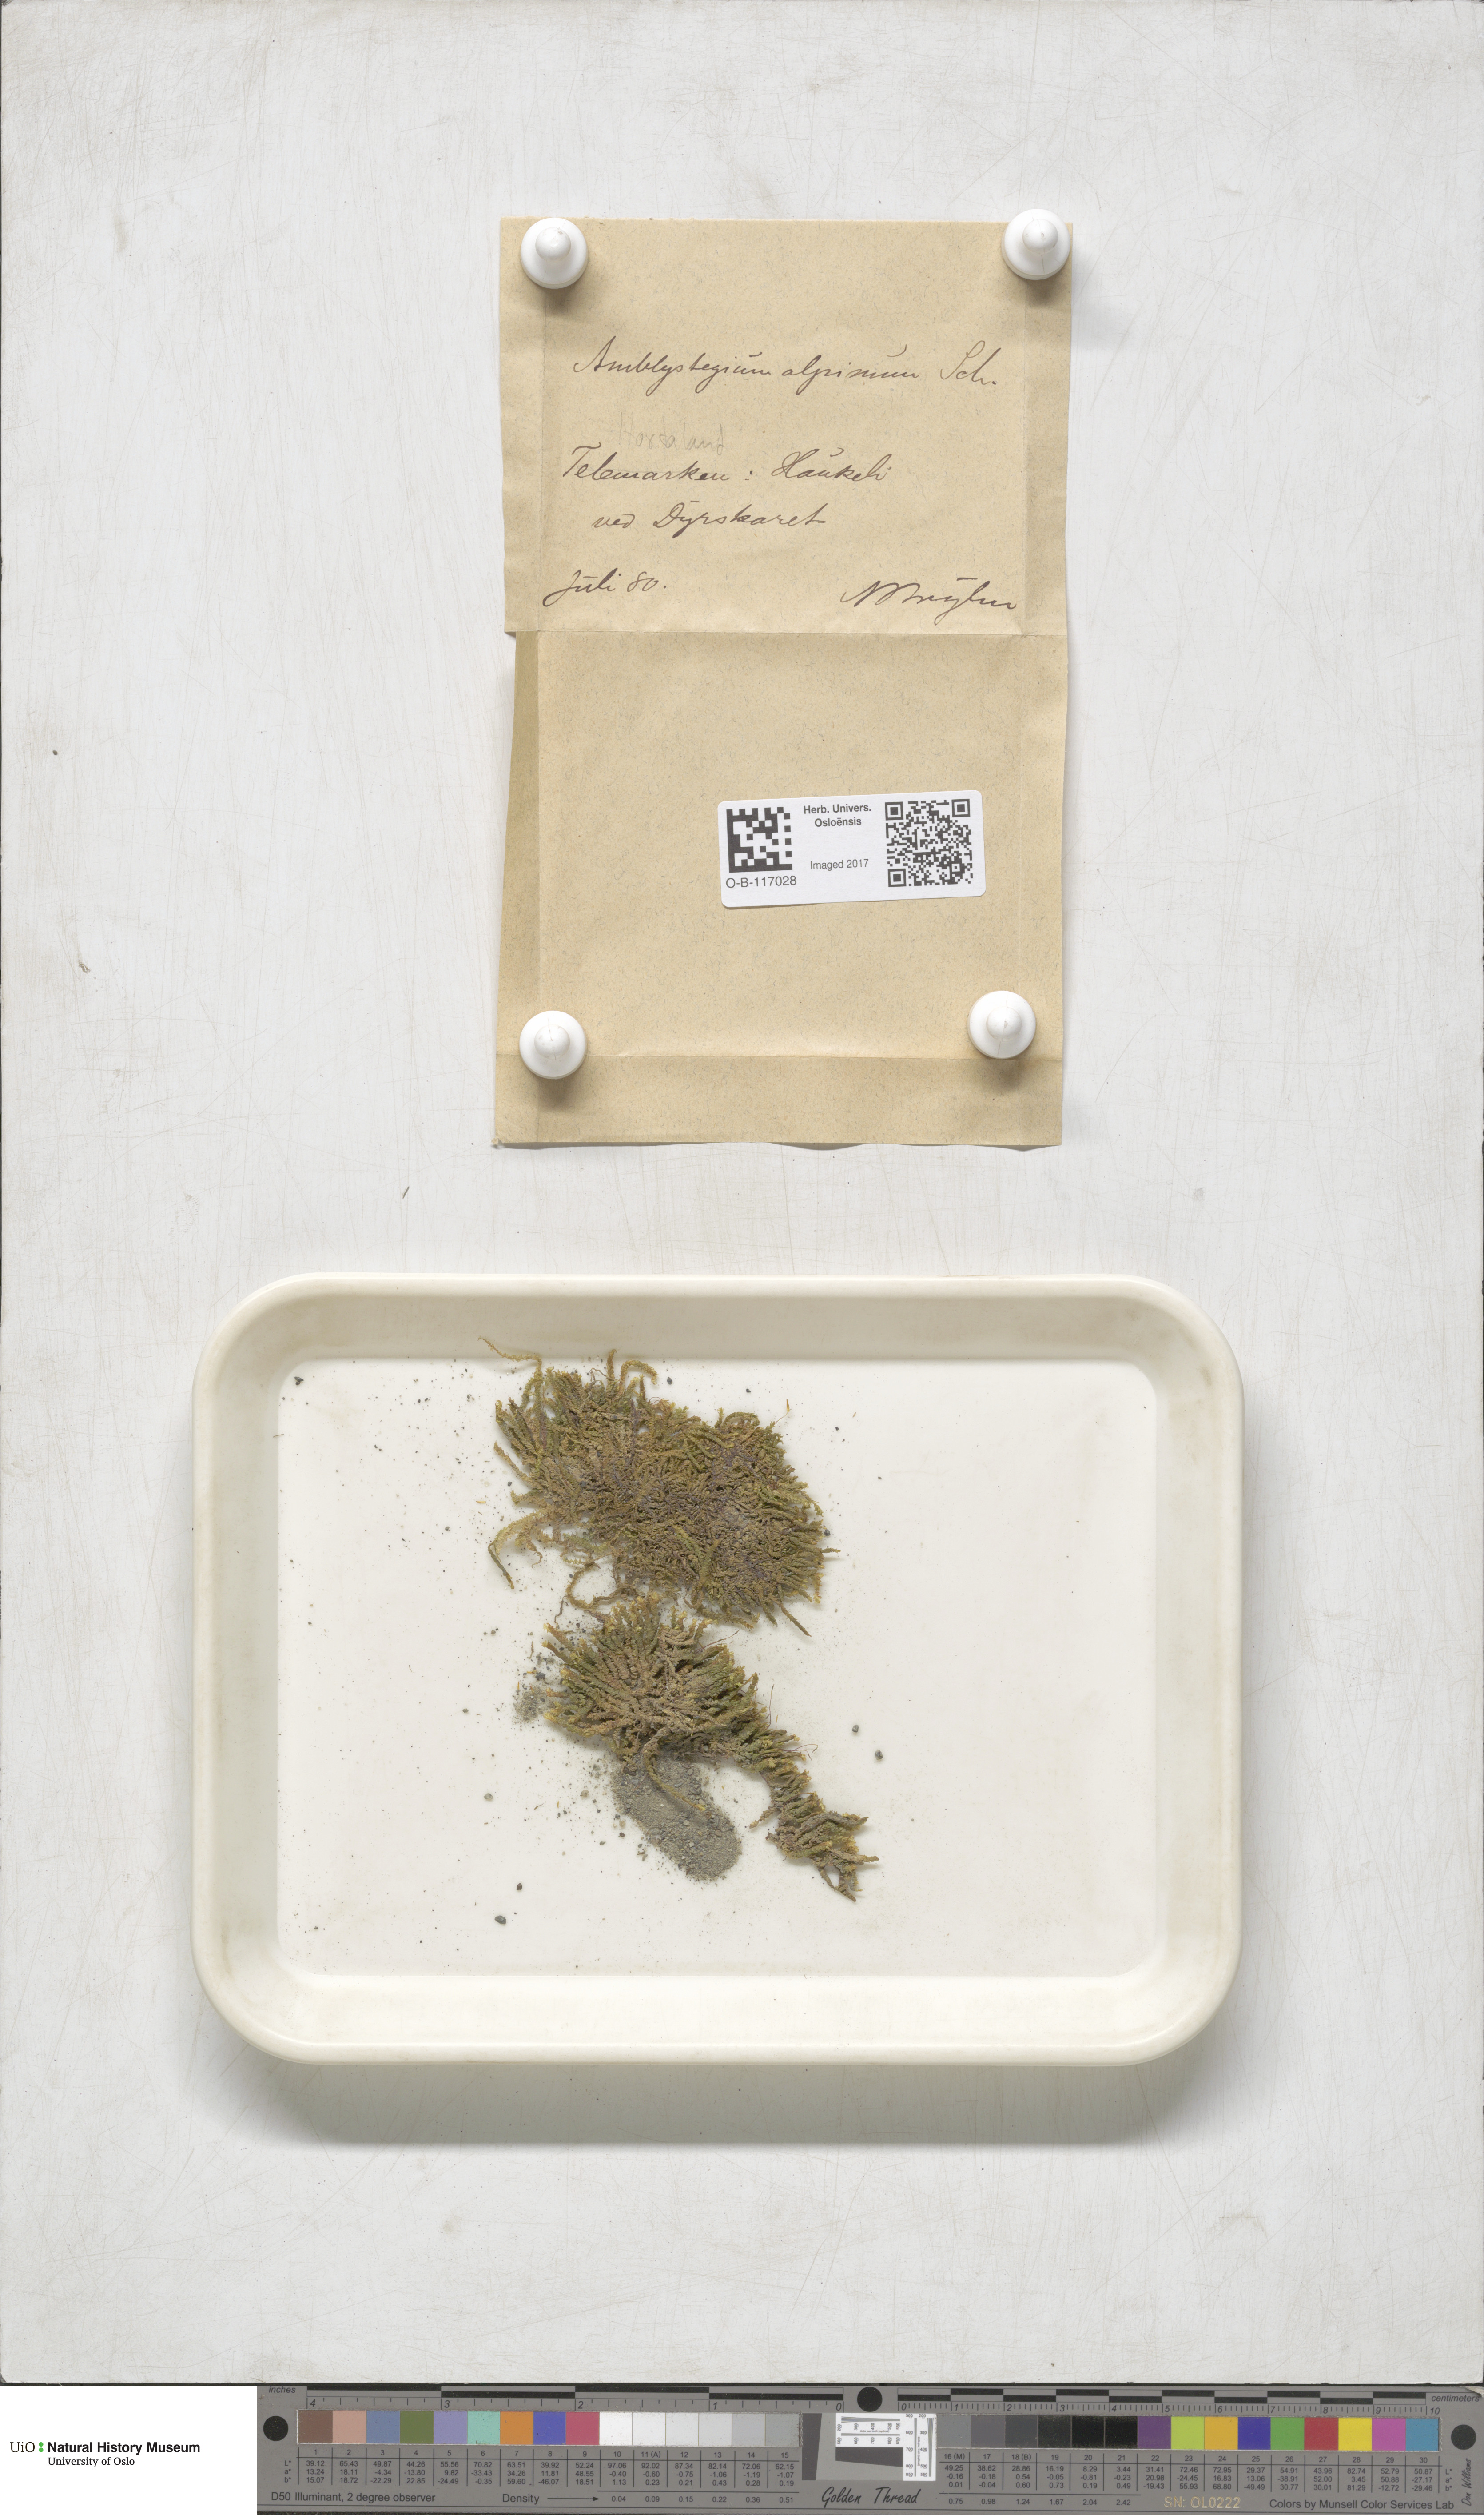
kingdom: Plantae
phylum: Bryophyta
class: Bryopsida
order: Hypnales
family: Amblystegiaceae
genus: Platyhypnum
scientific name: Platyhypnum alpinum
